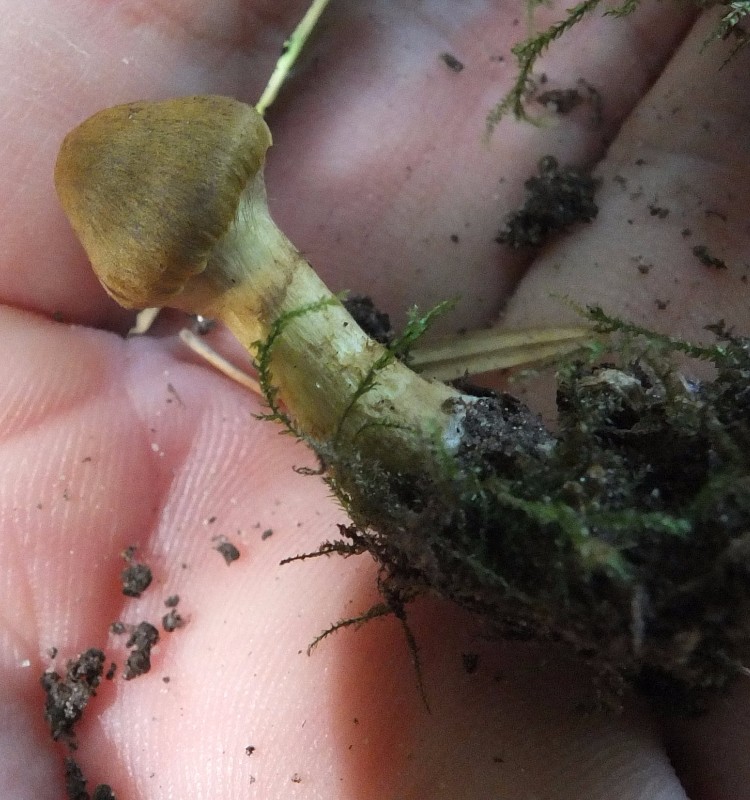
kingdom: Fungi
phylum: Basidiomycota
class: Agaricomycetes
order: Agaricales
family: Cortinariaceae
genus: Cortinarius
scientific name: Cortinarius olivaceofuscus
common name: olivenbrun slørhat
